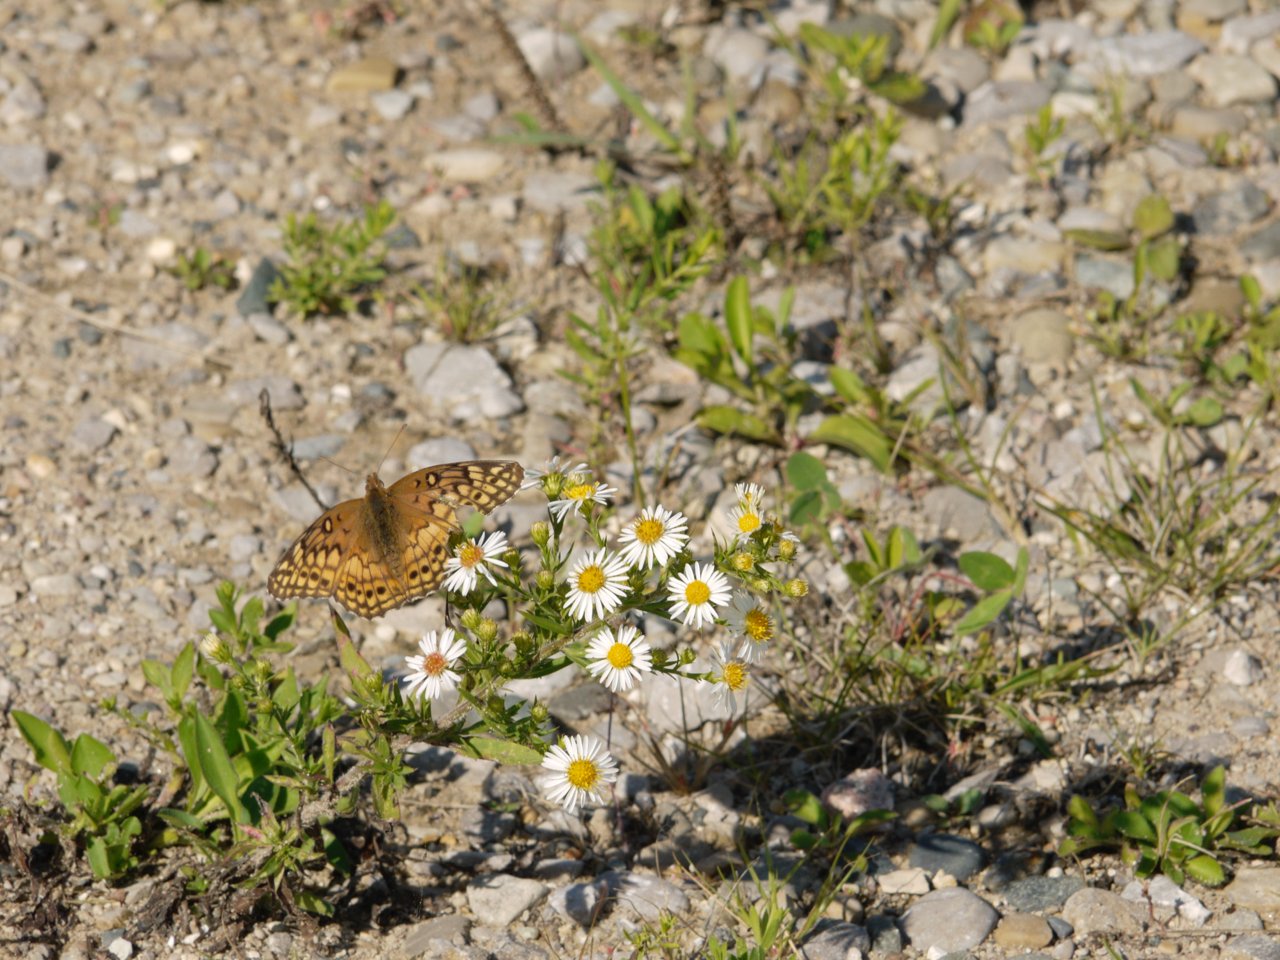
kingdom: Animalia
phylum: Arthropoda
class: Insecta
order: Lepidoptera
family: Nymphalidae
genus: Euptoieta
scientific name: Euptoieta claudia
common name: Variegated Fritillary
